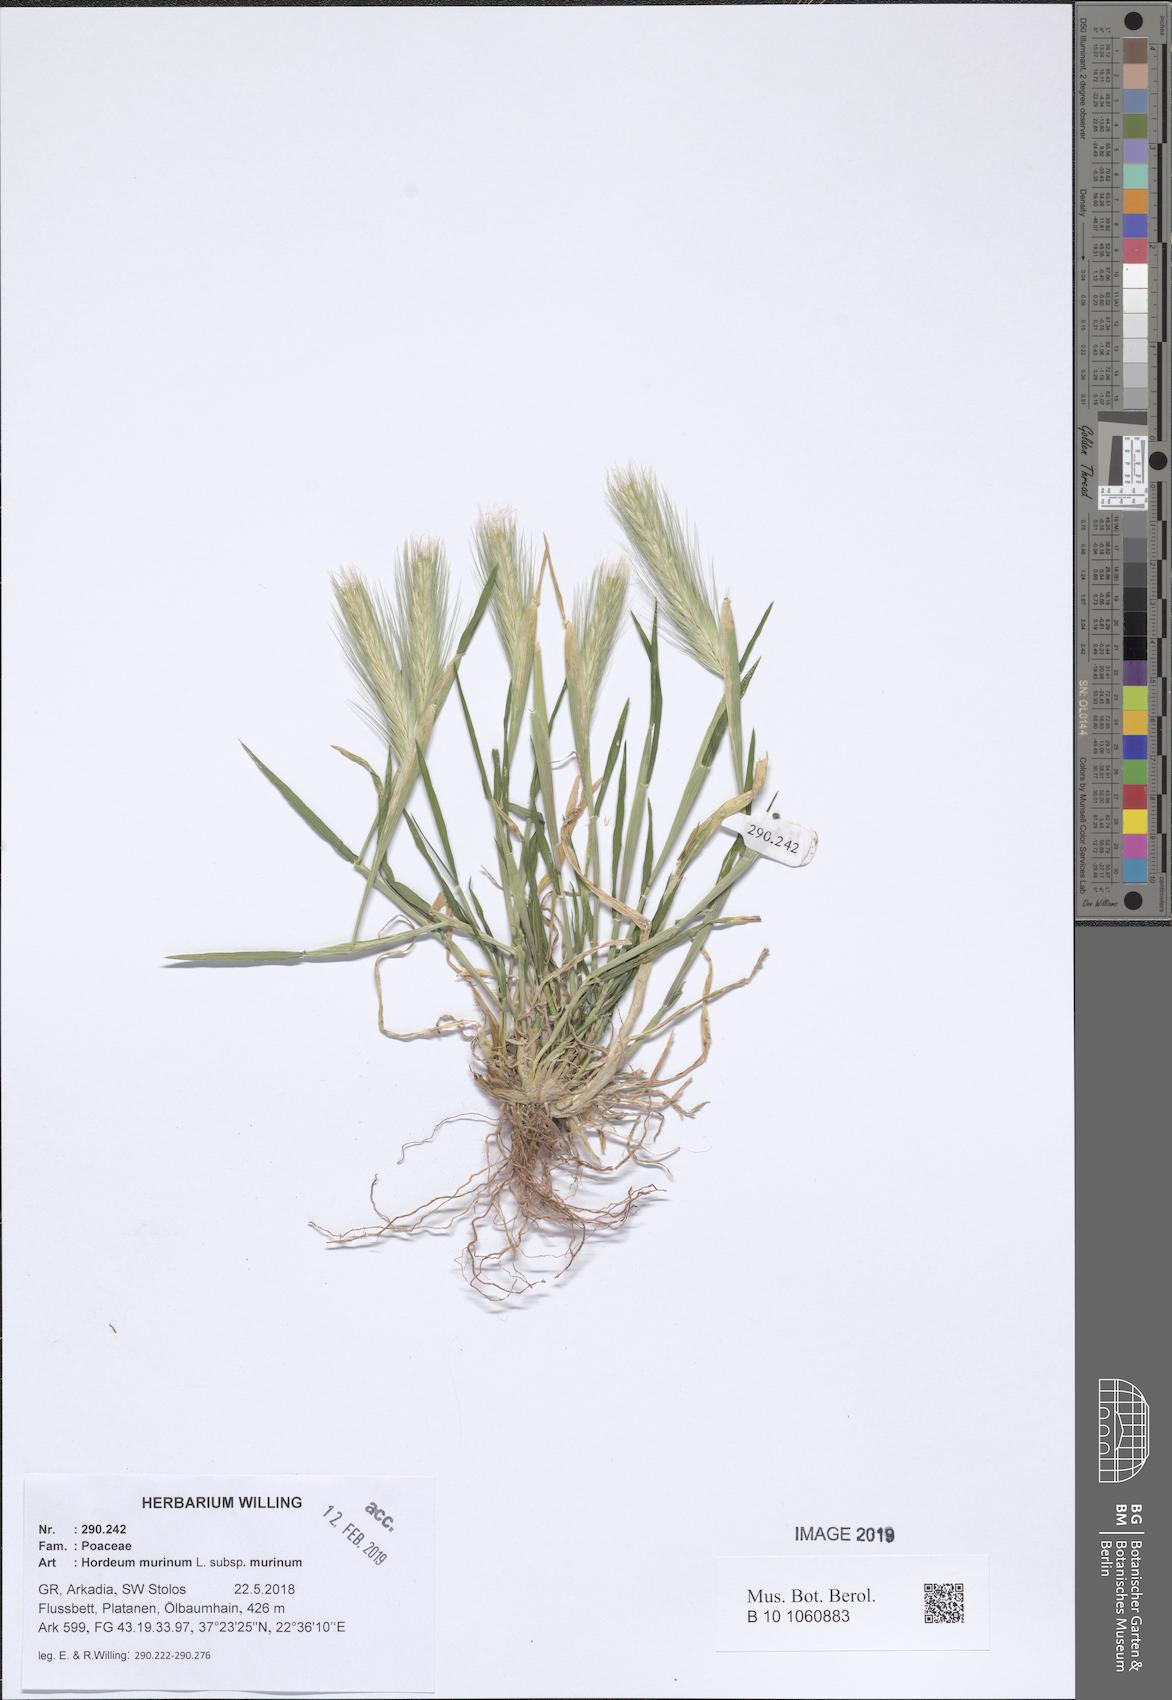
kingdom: Plantae
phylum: Tracheophyta
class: Liliopsida
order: Poales
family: Poaceae
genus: Hordeum
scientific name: Hordeum murinum
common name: Wall barley
